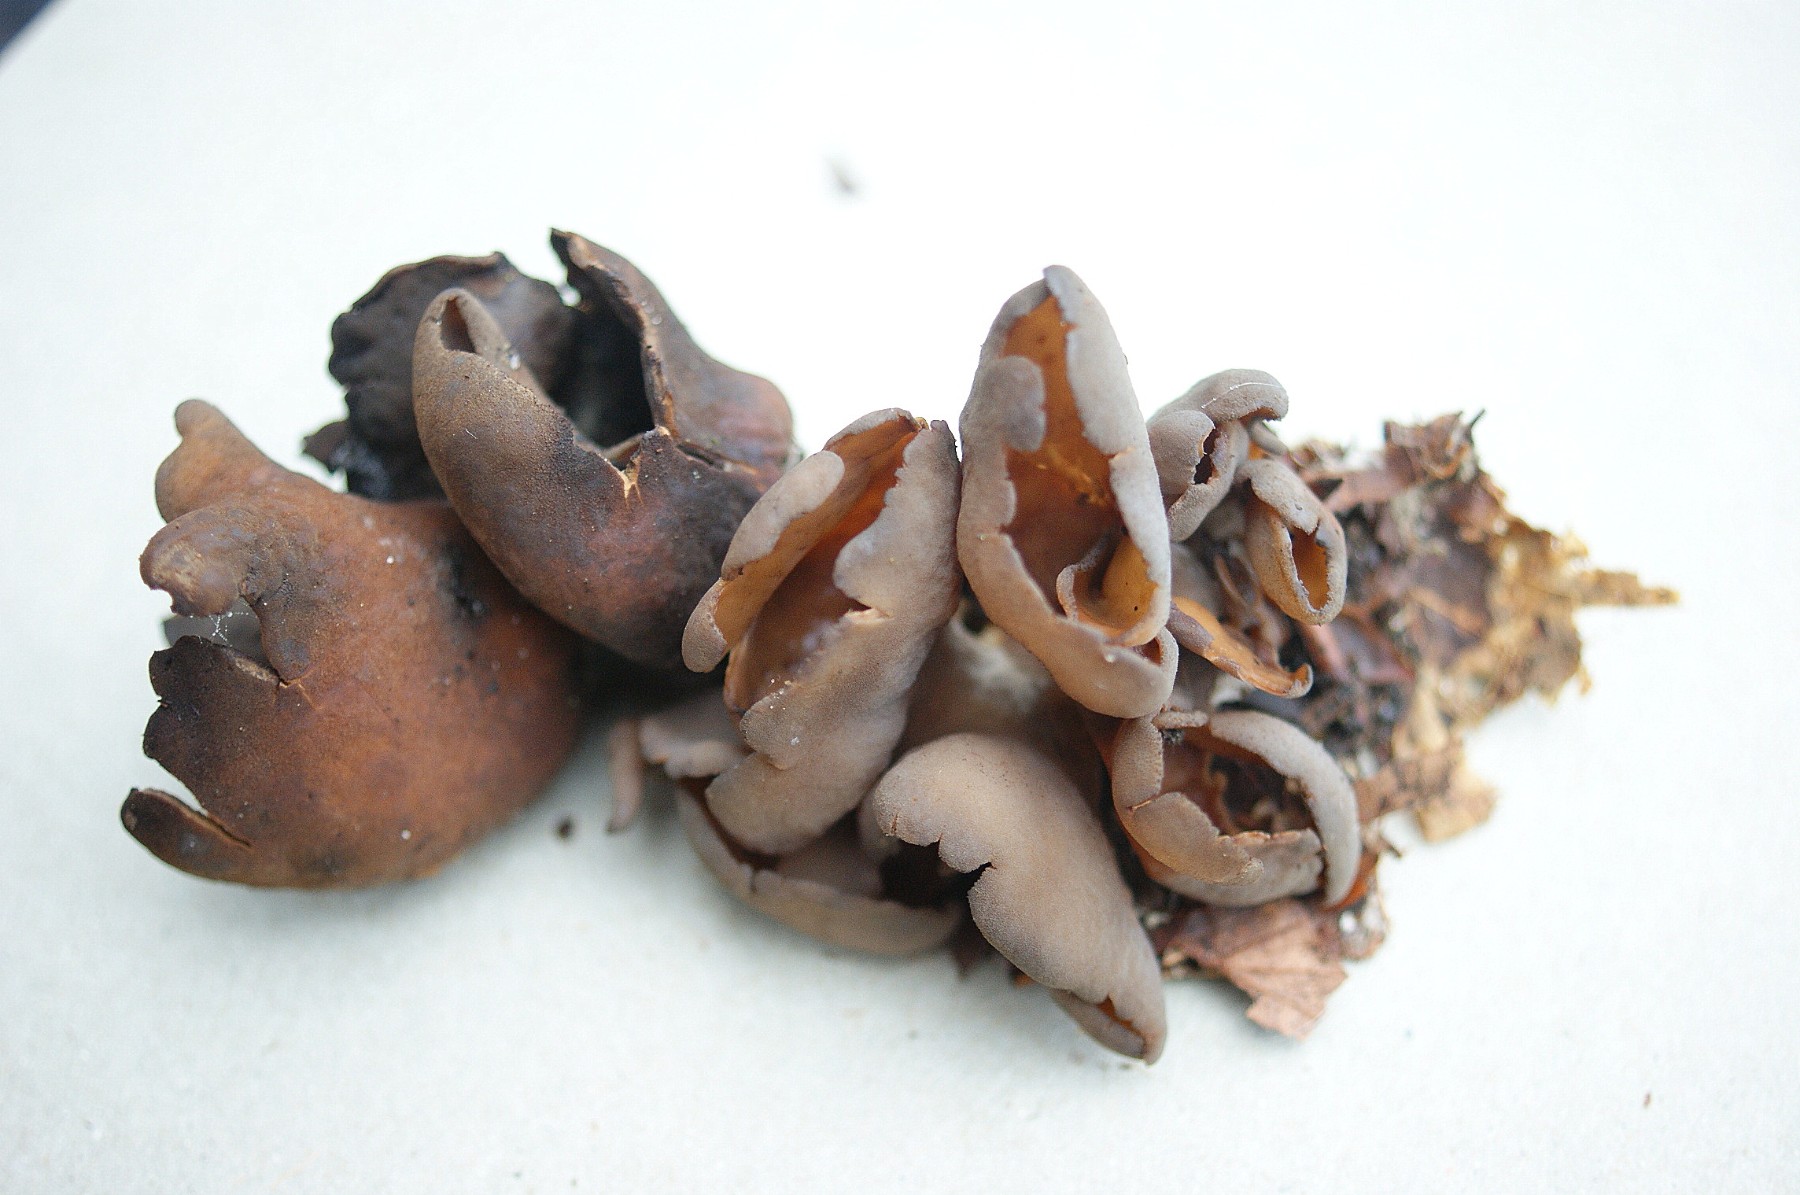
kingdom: Fungi
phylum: Ascomycota
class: Pezizomycetes
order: Pezizales
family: Otideaceae
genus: Otidea
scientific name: Otidea
